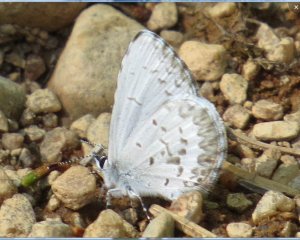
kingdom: Animalia
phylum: Arthropoda
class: Insecta
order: Lepidoptera
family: Lycaenidae
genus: Celastrina
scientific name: Celastrina serotina
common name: Cherry Gall Azure
